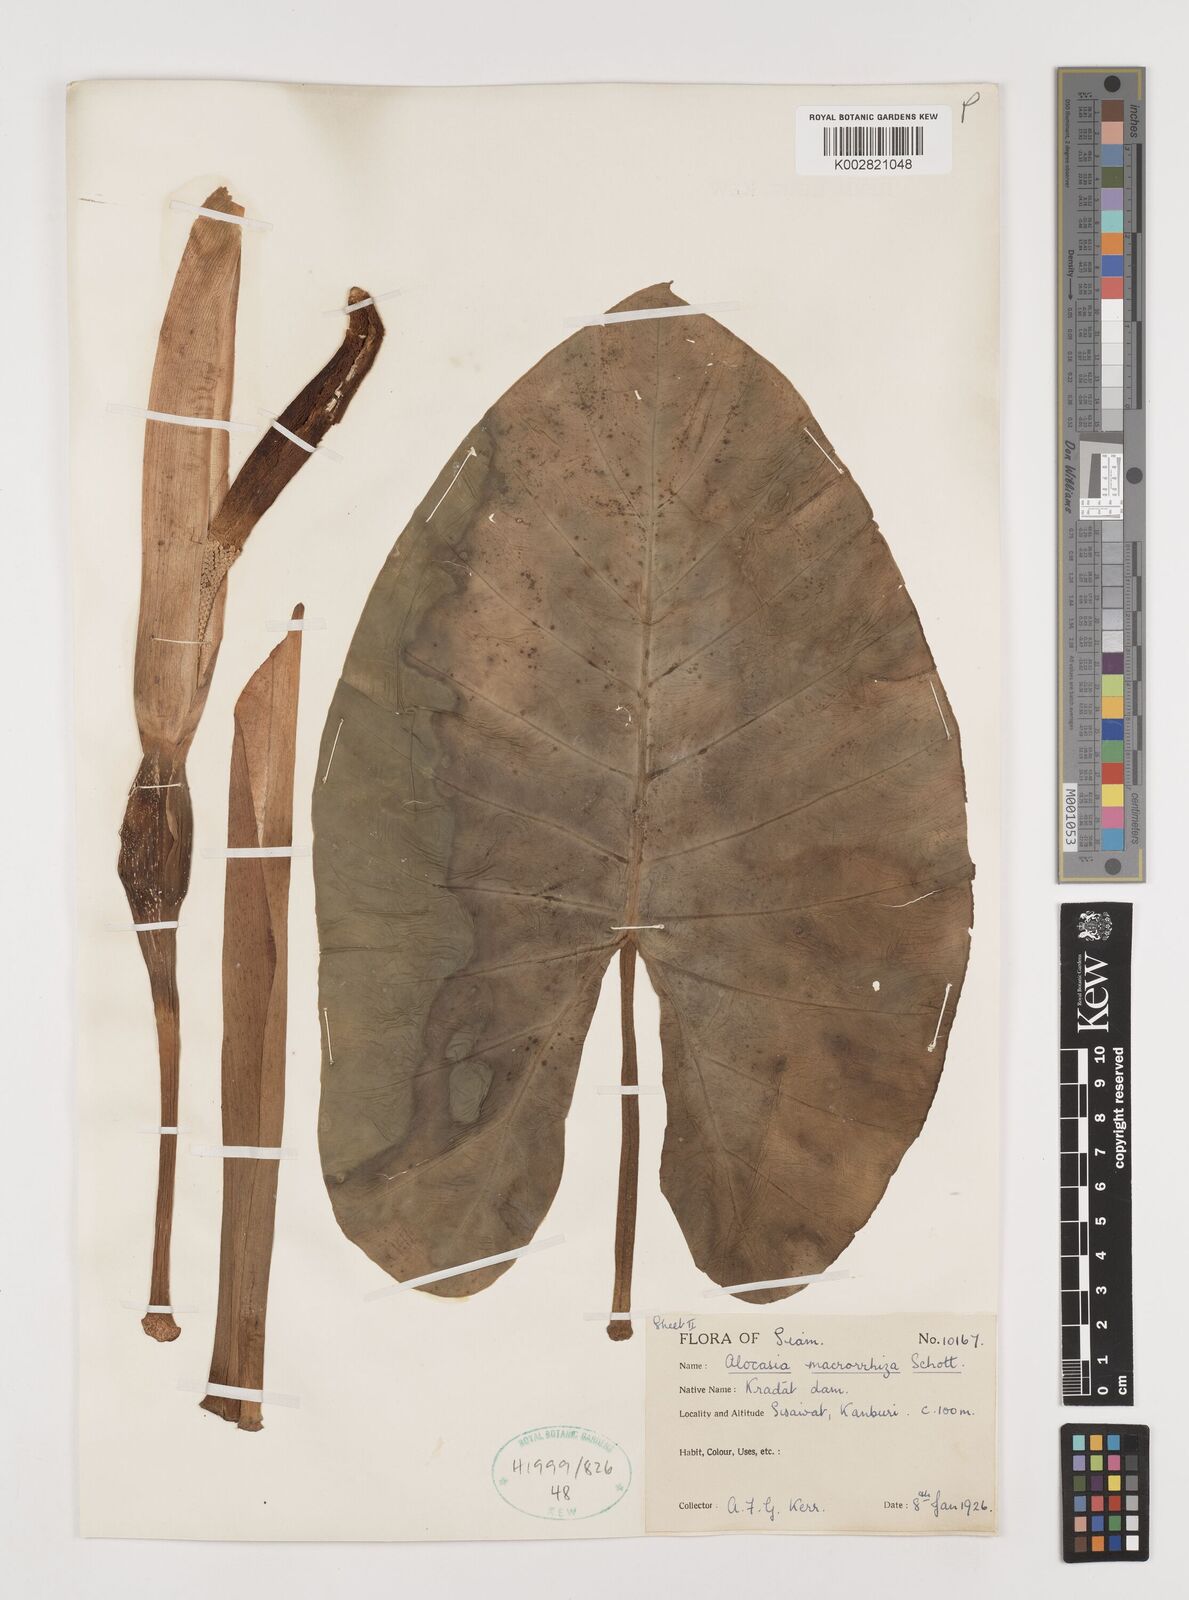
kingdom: Plantae
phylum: Tracheophyta
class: Liliopsida
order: Alismatales
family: Araceae
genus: Alocasia
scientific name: Alocasia macrorrhizos
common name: Giant taro
